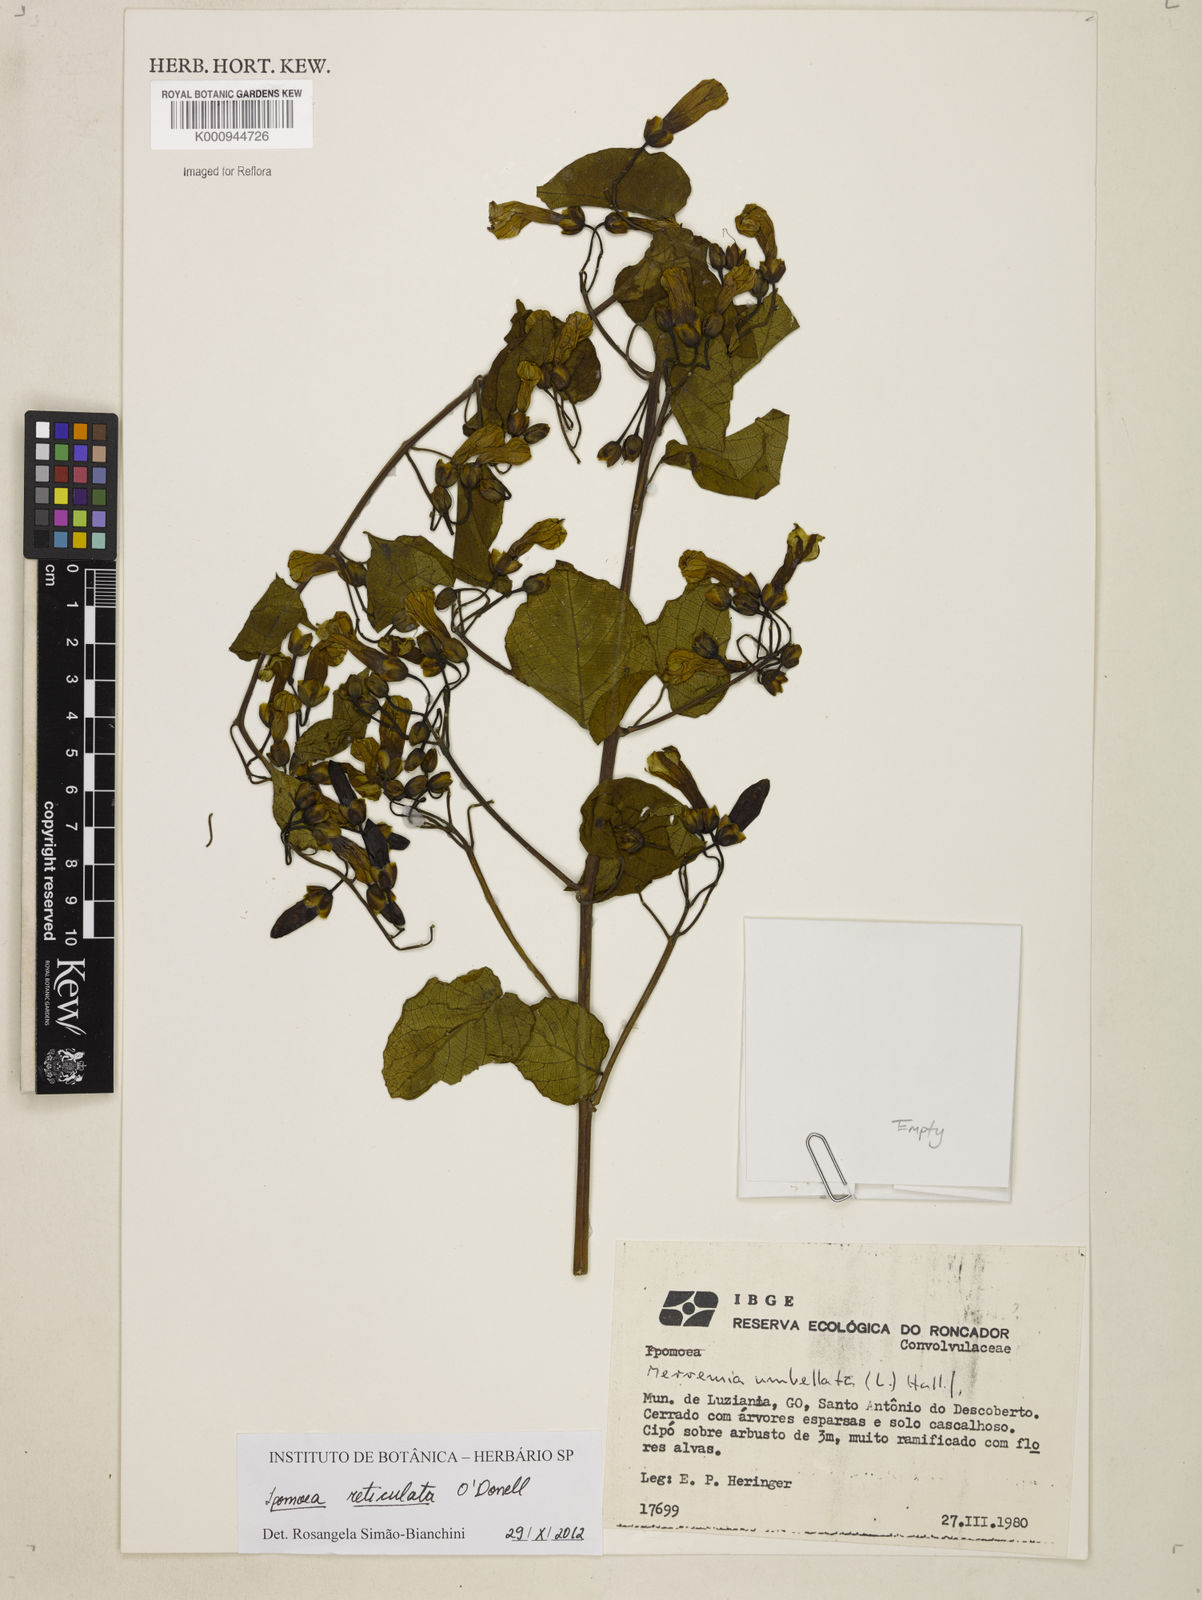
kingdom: Plantae
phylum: Tracheophyta
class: Magnoliopsida
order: Solanales
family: Convolvulaceae
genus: Ipomoea
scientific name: Ipomoea reticulata
